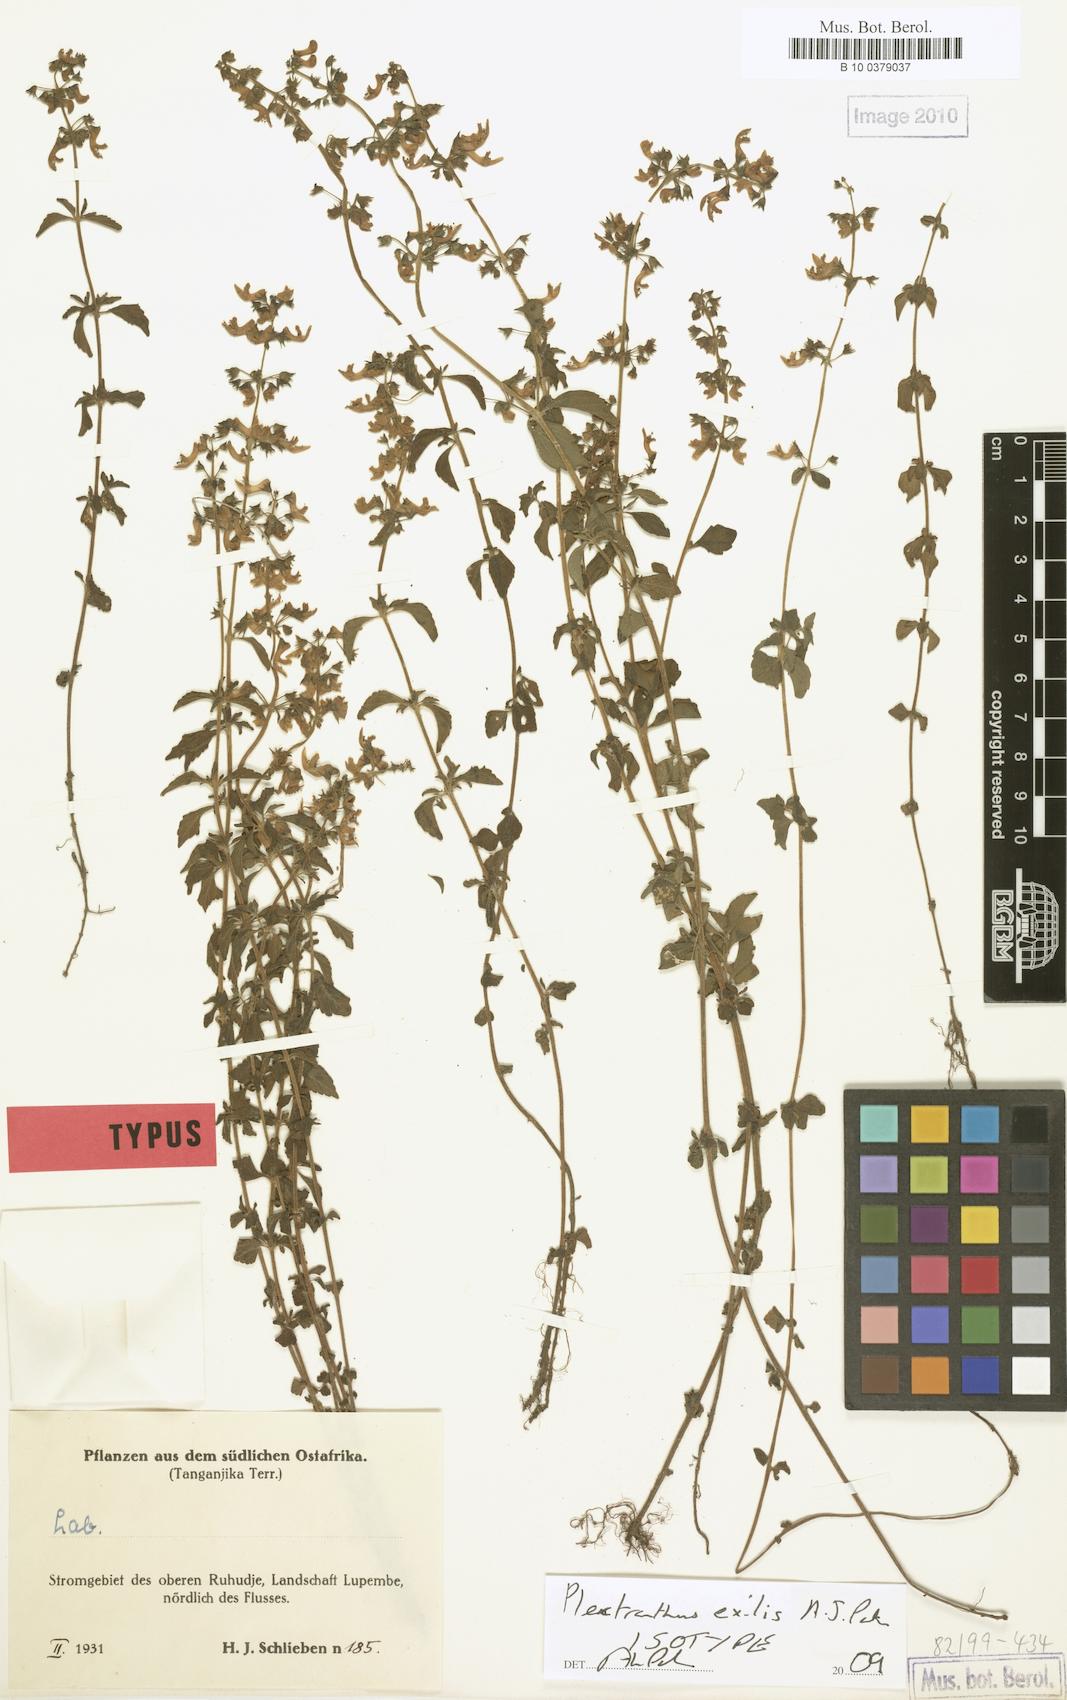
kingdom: Plantae
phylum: Tracheophyta
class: Magnoliopsida
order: Lamiales
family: Lamiaceae
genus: Coleus
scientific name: Coleus exilis
